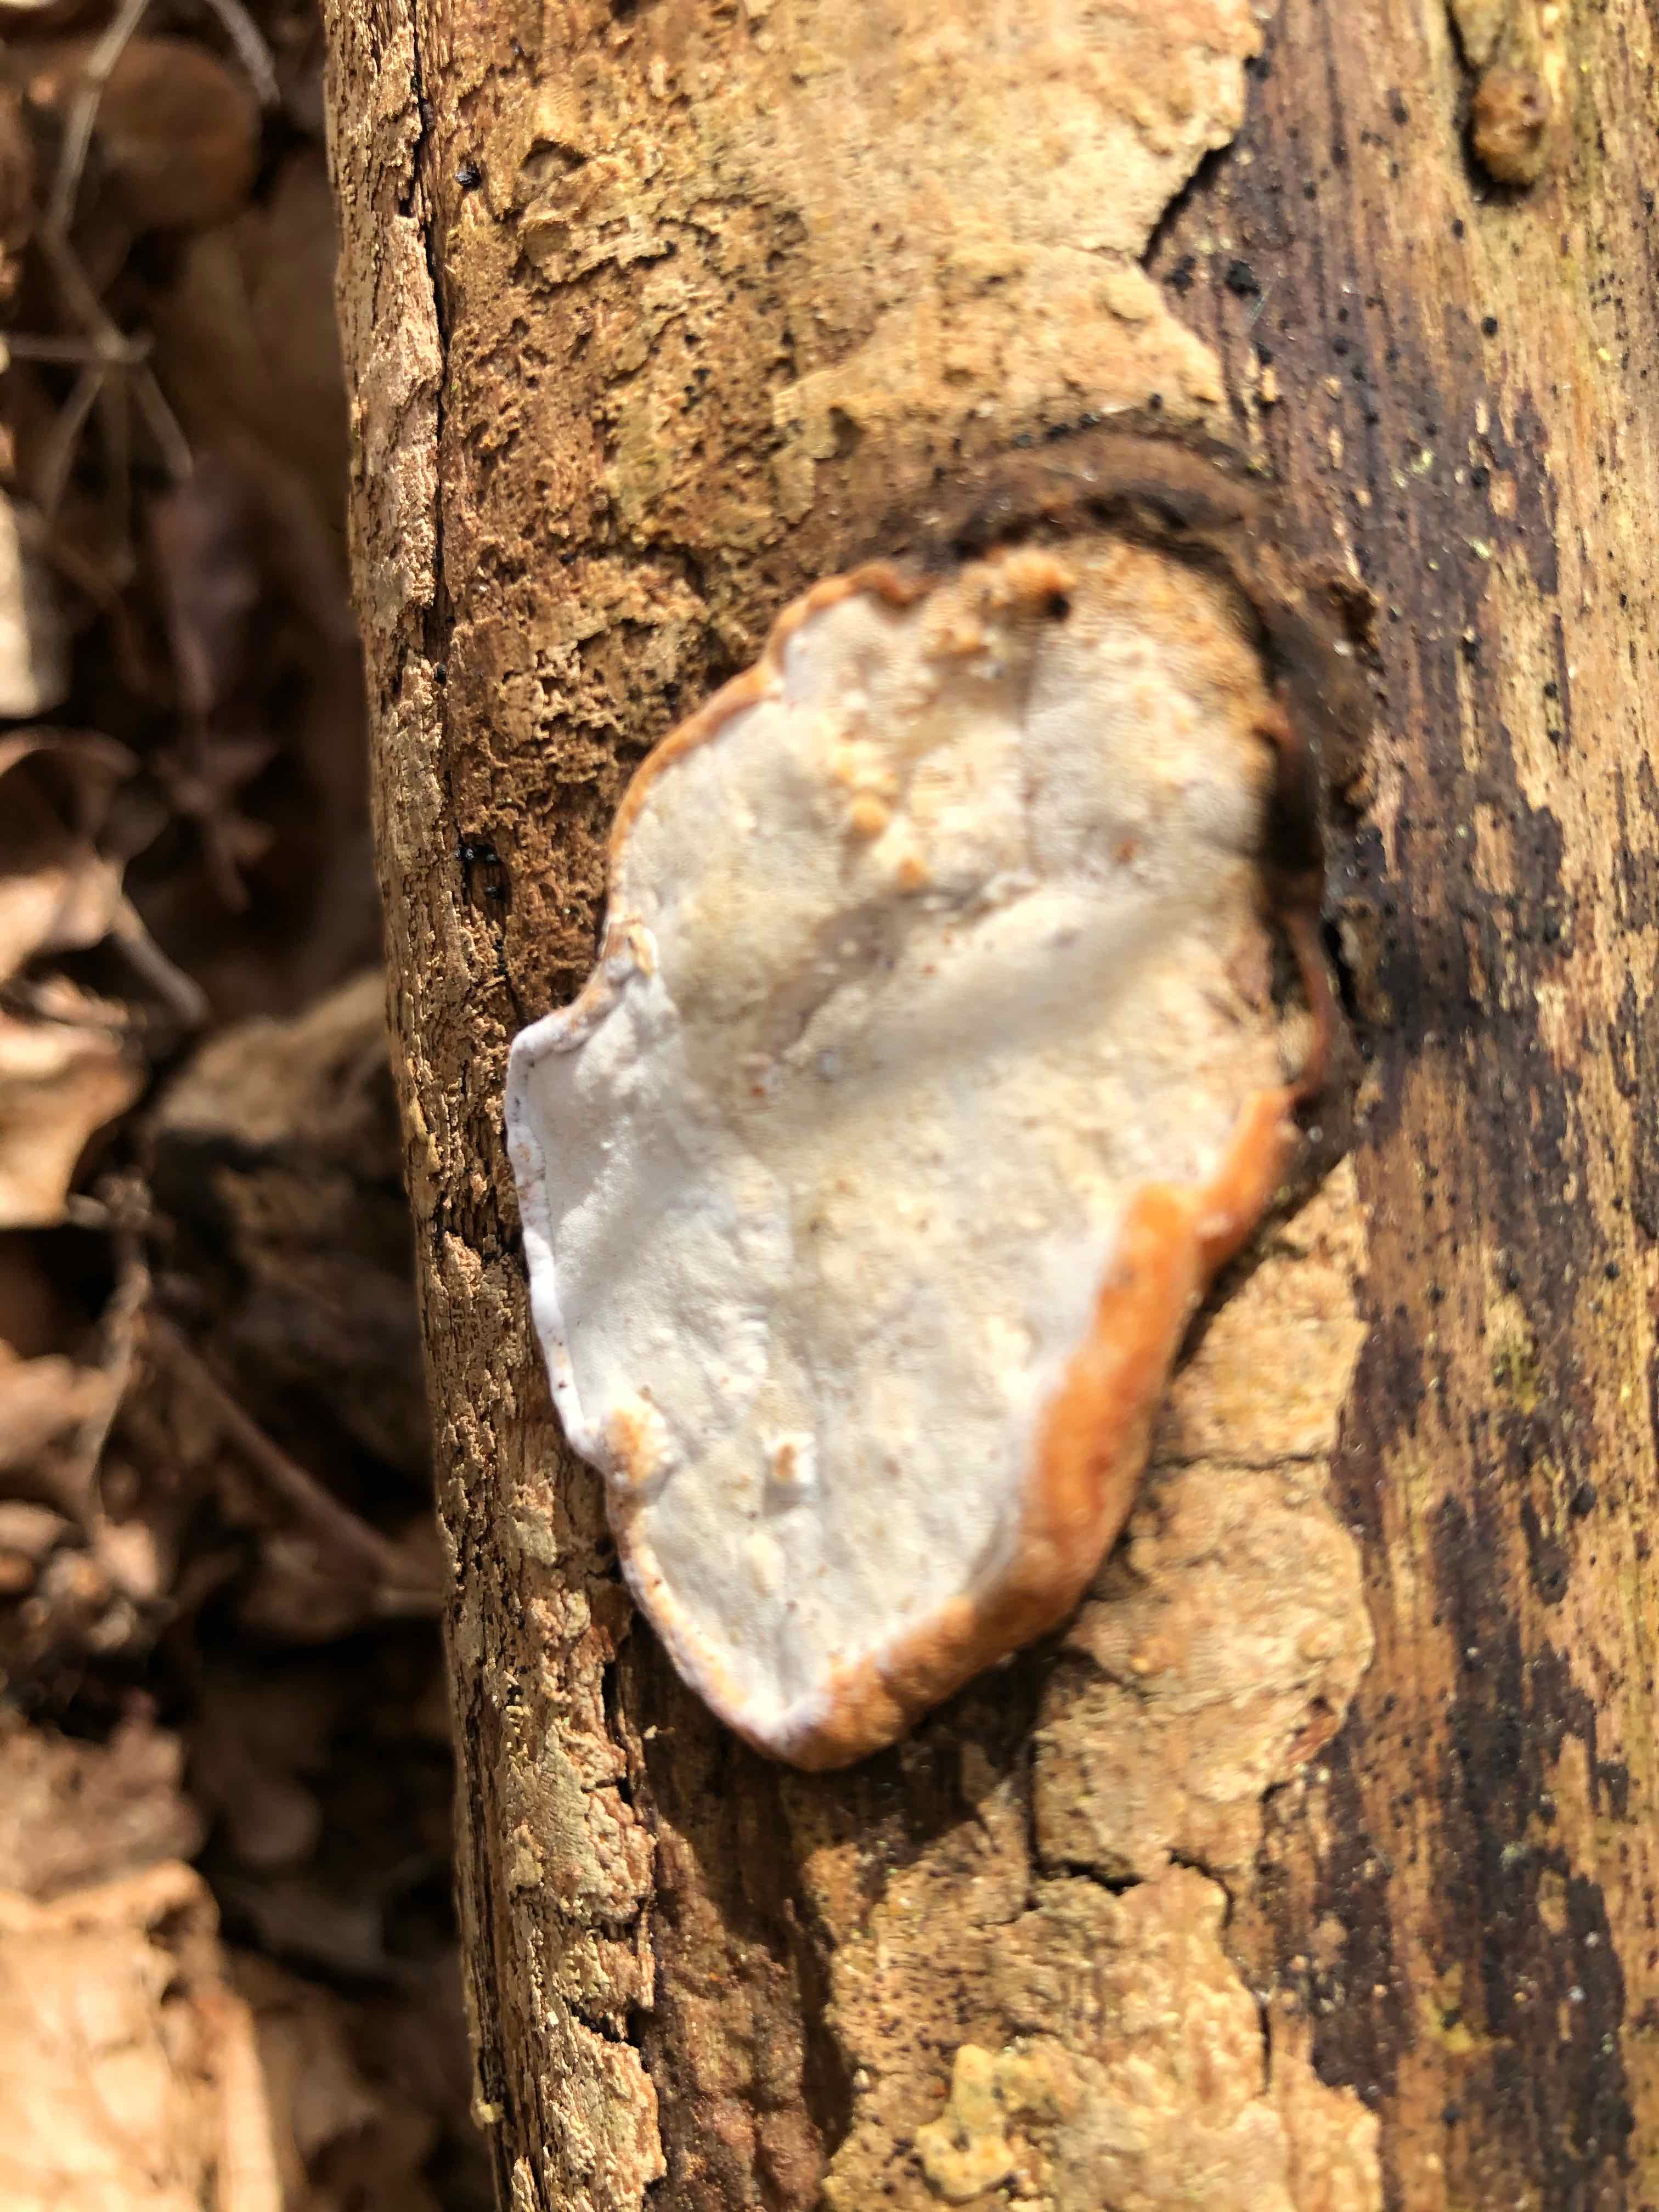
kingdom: Fungi
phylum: Basidiomycota
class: Agaricomycetes
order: Polyporales
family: Incrustoporiaceae
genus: Skeletocutis
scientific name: Skeletocutis nemoralis
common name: stor krystalporesvamp
